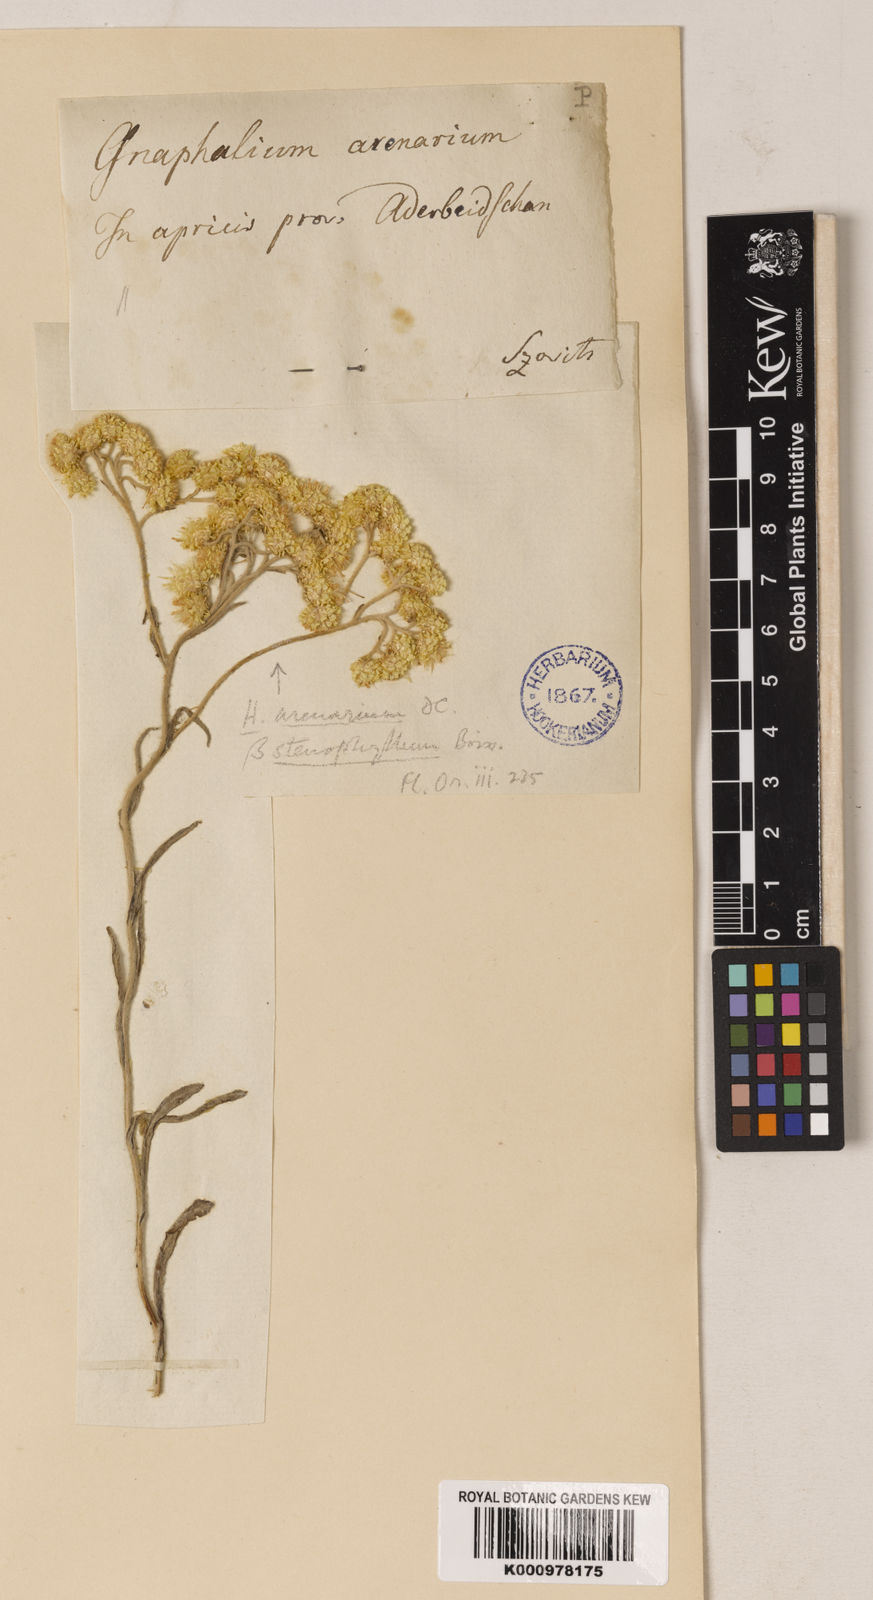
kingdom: Plantae
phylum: Tracheophyta
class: Magnoliopsida
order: Asterales
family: Asteraceae
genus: Helichrysum
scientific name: Helichrysum
